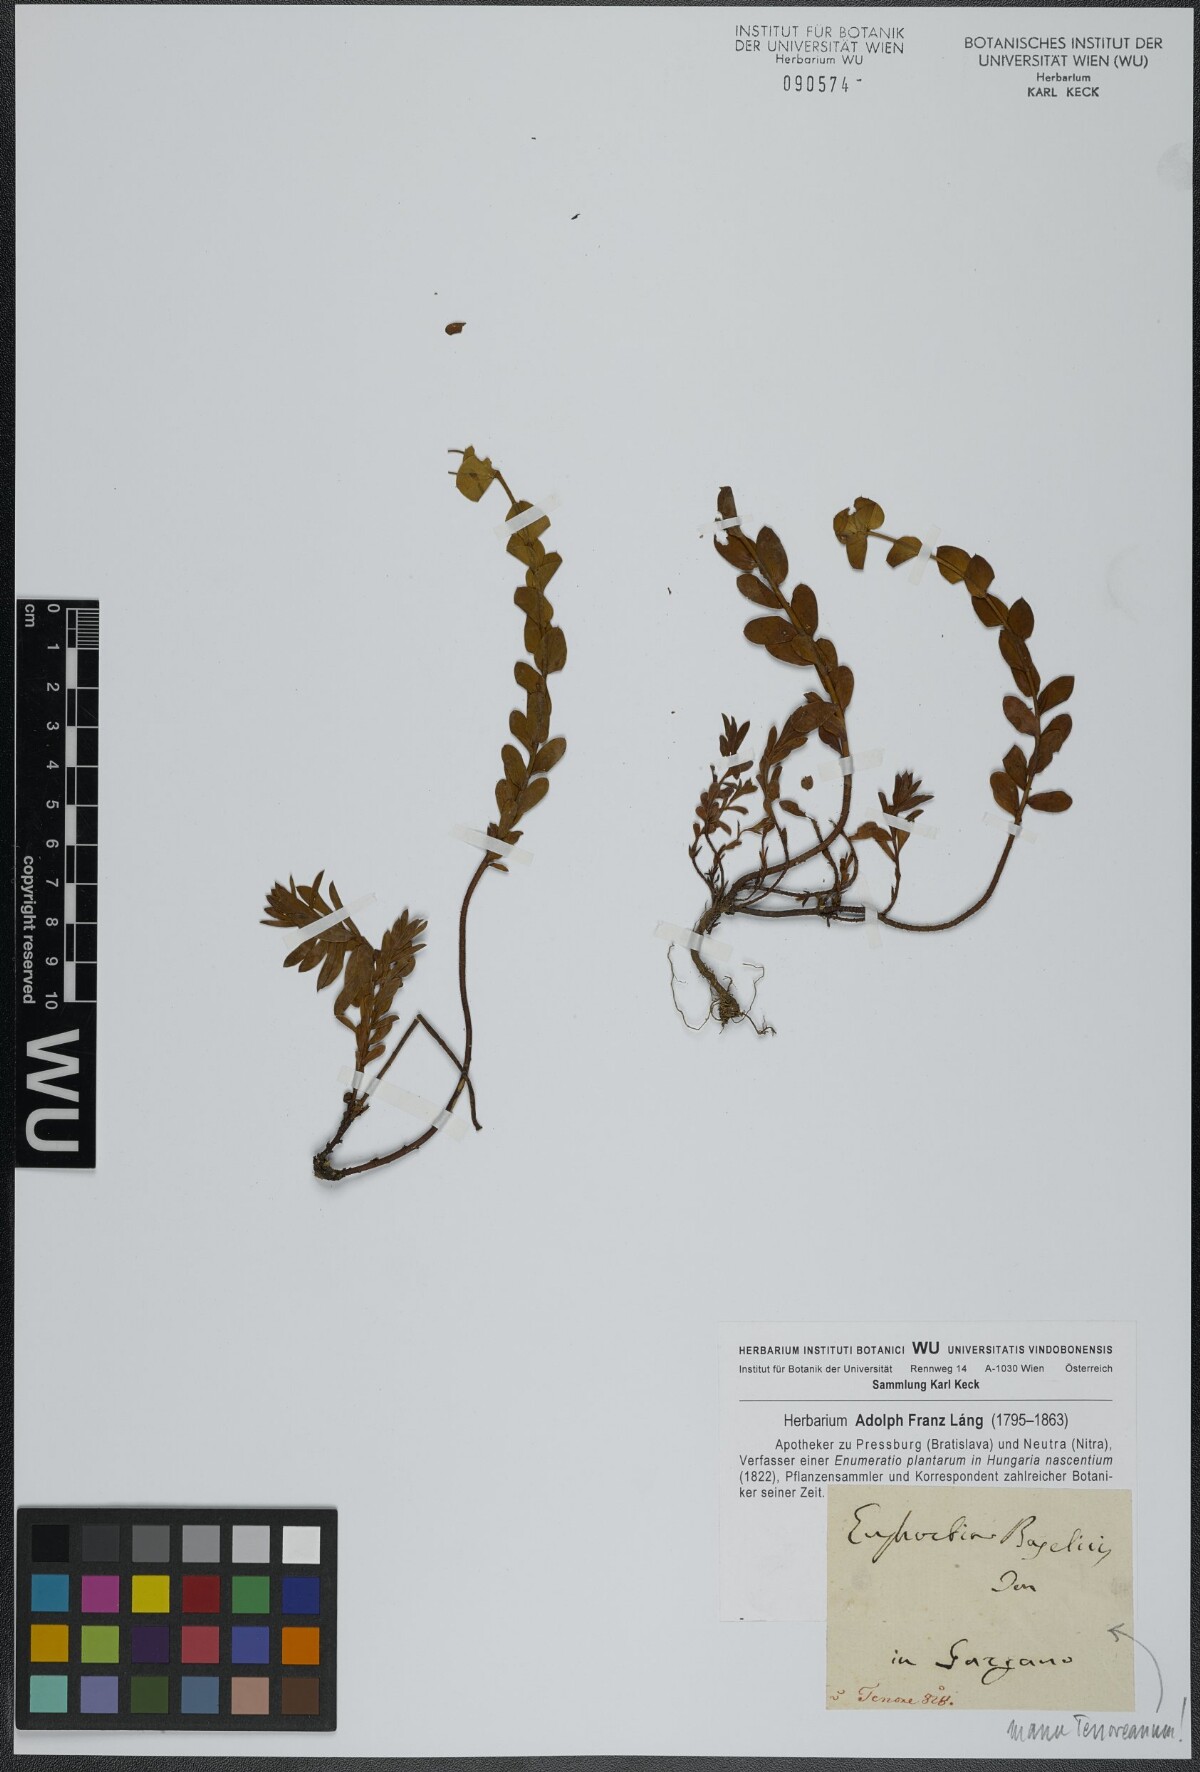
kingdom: Plantae
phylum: Tracheophyta
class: Magnoliopsida
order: Malpighiales
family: Euphorbiaceae
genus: Euphorbia
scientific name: Euphorbia barrelieri
